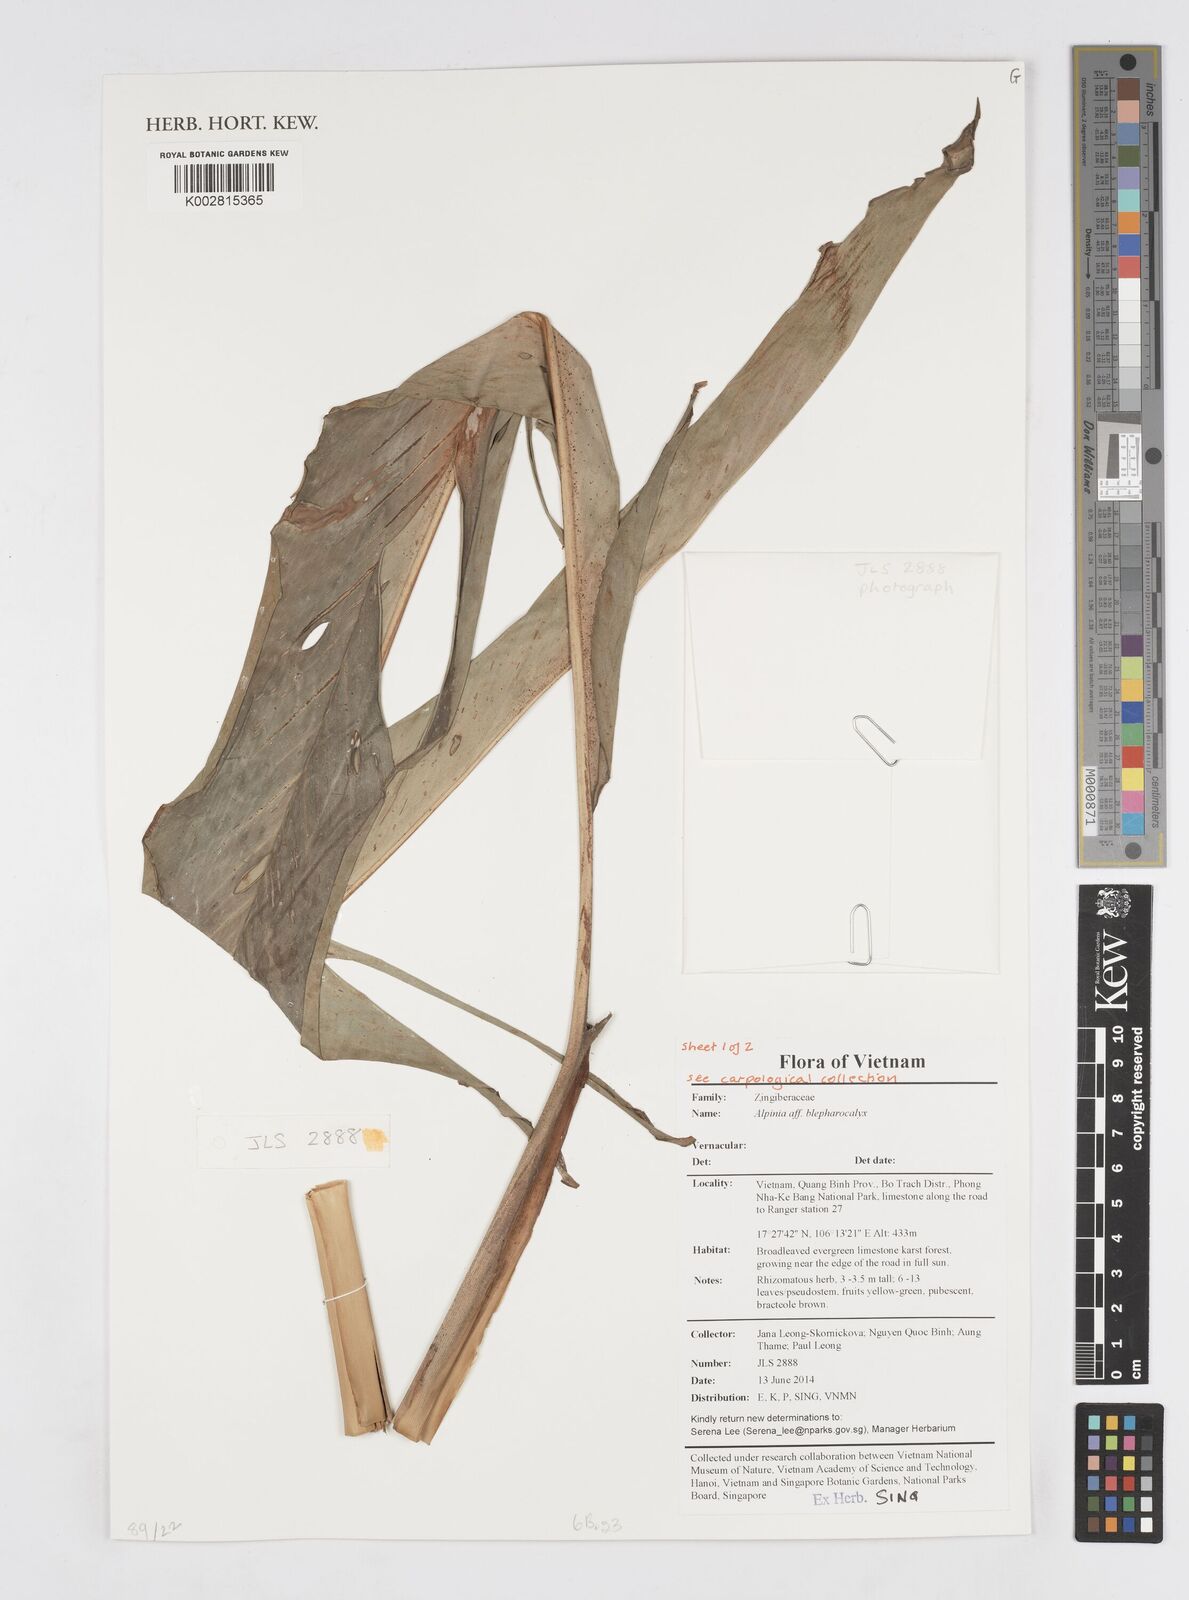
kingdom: Plantae
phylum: Tracheophyta
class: Liliopsida
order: Zingiberales
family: Zingiberaceae
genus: Alpinia
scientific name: Alpinia roxburghii
